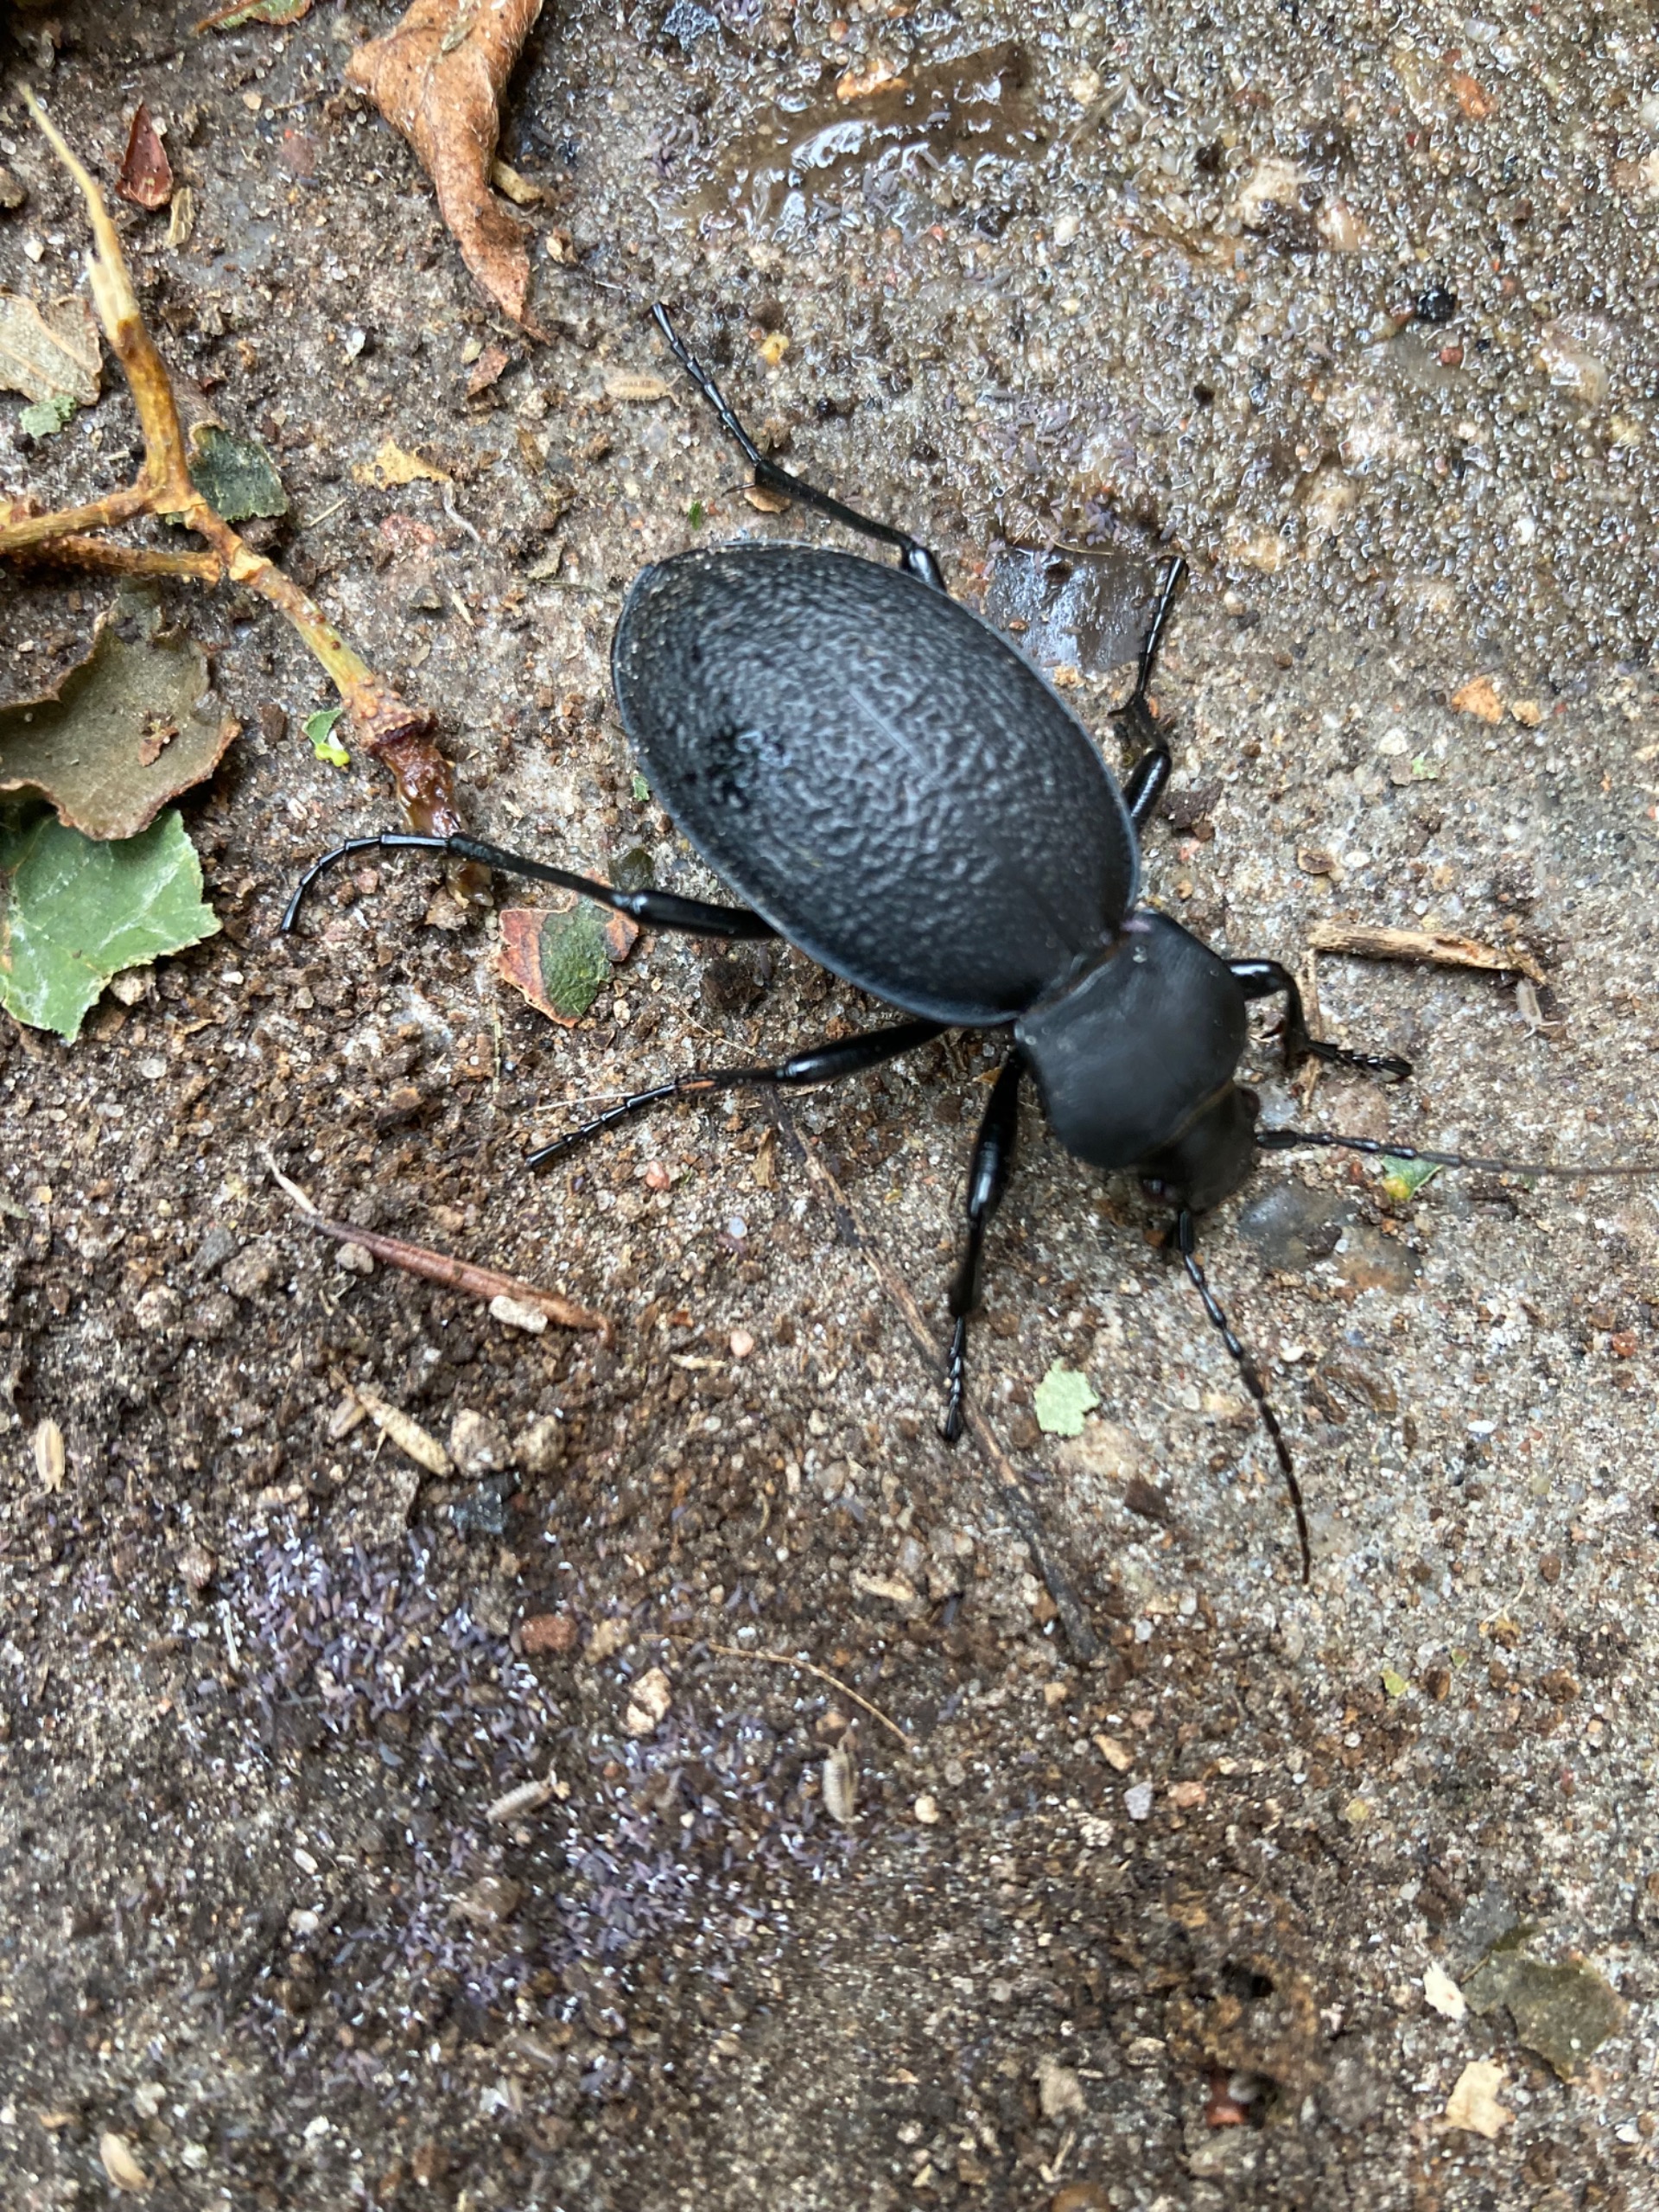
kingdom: Animalia
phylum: Arthropoda
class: Insecta
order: Coleoptera
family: Carabidae
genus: Carabus
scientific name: Carabus coriaceus
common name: Læderløber
